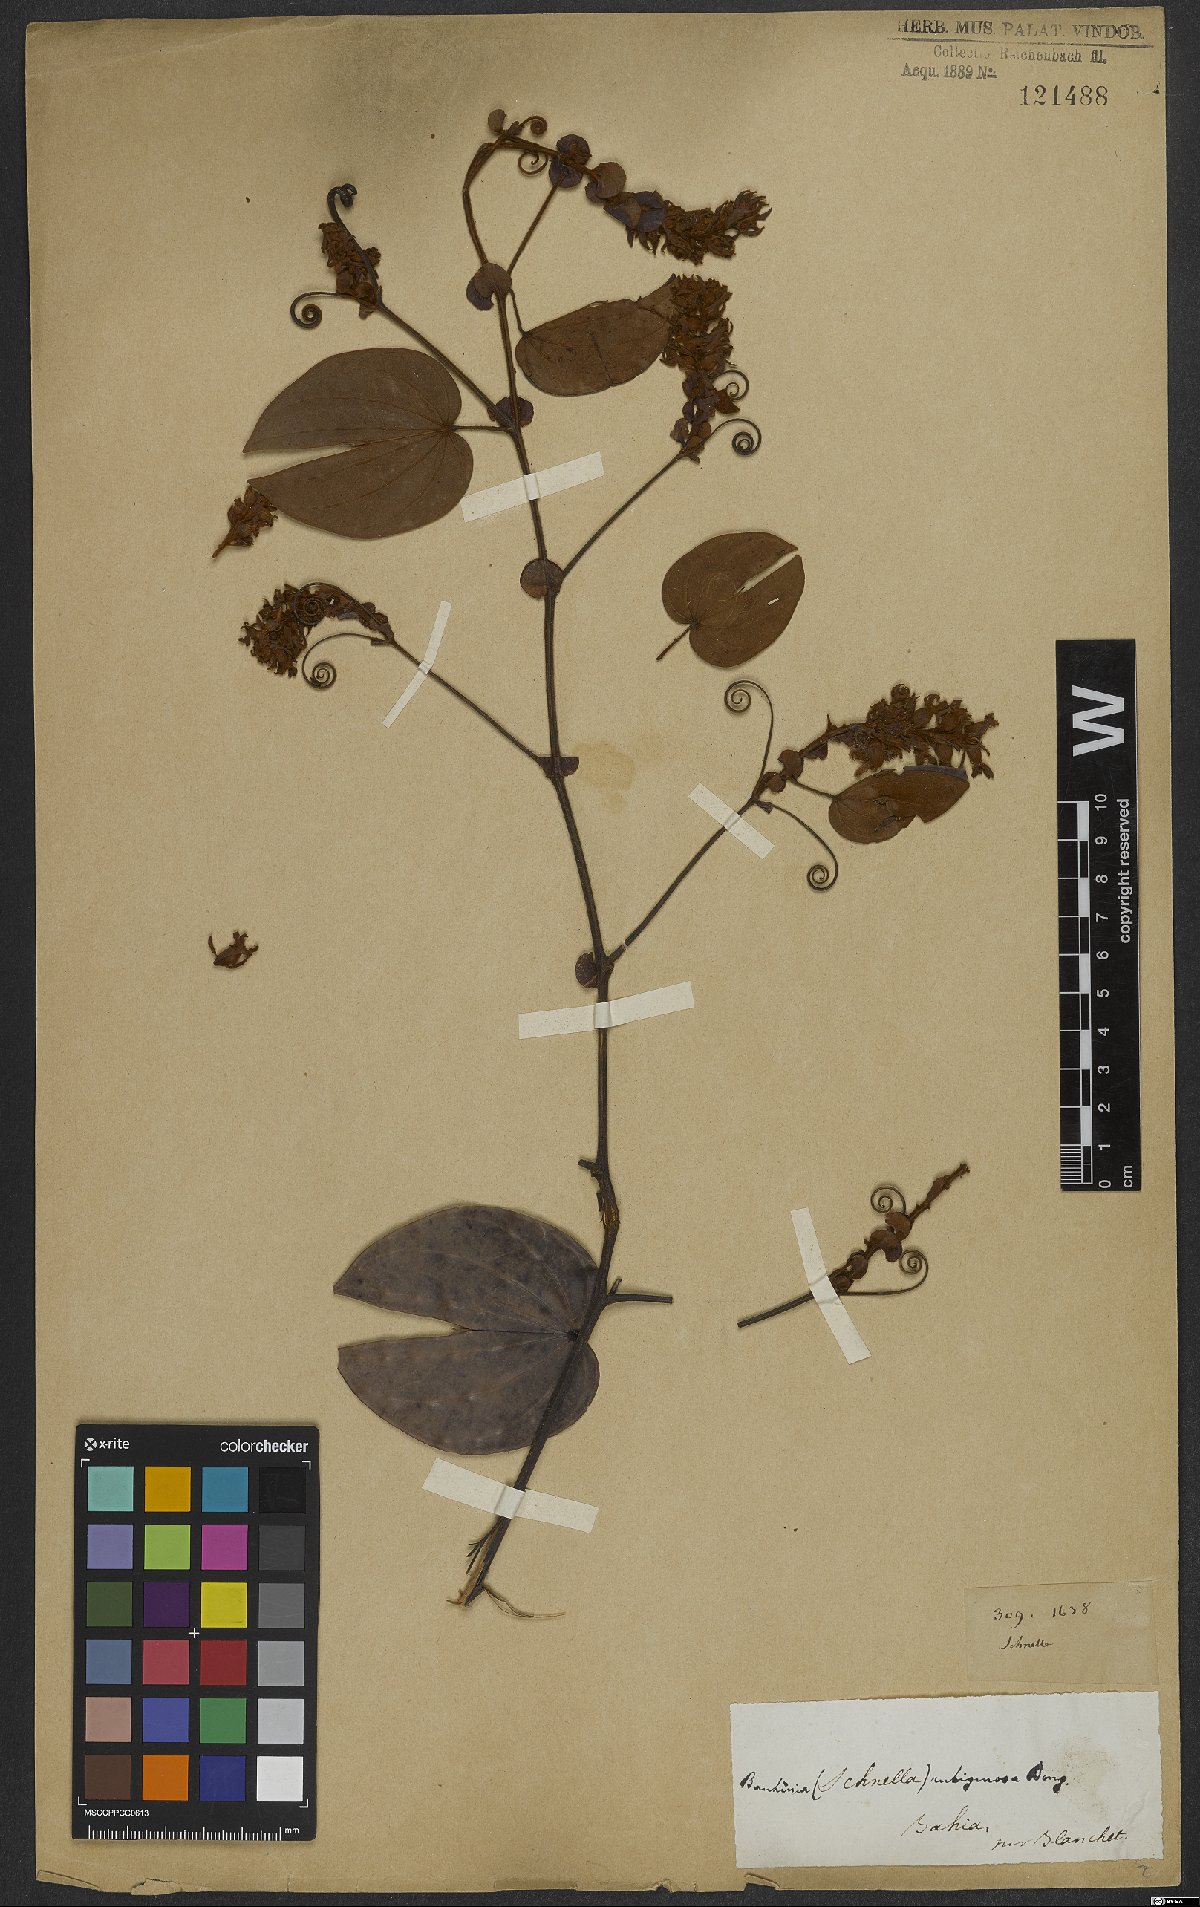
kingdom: Plantae
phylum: Tracheophyta
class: Magnoliopsida
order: Fabales
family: Fabaceae
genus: Schnella
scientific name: Schnella outimouta
